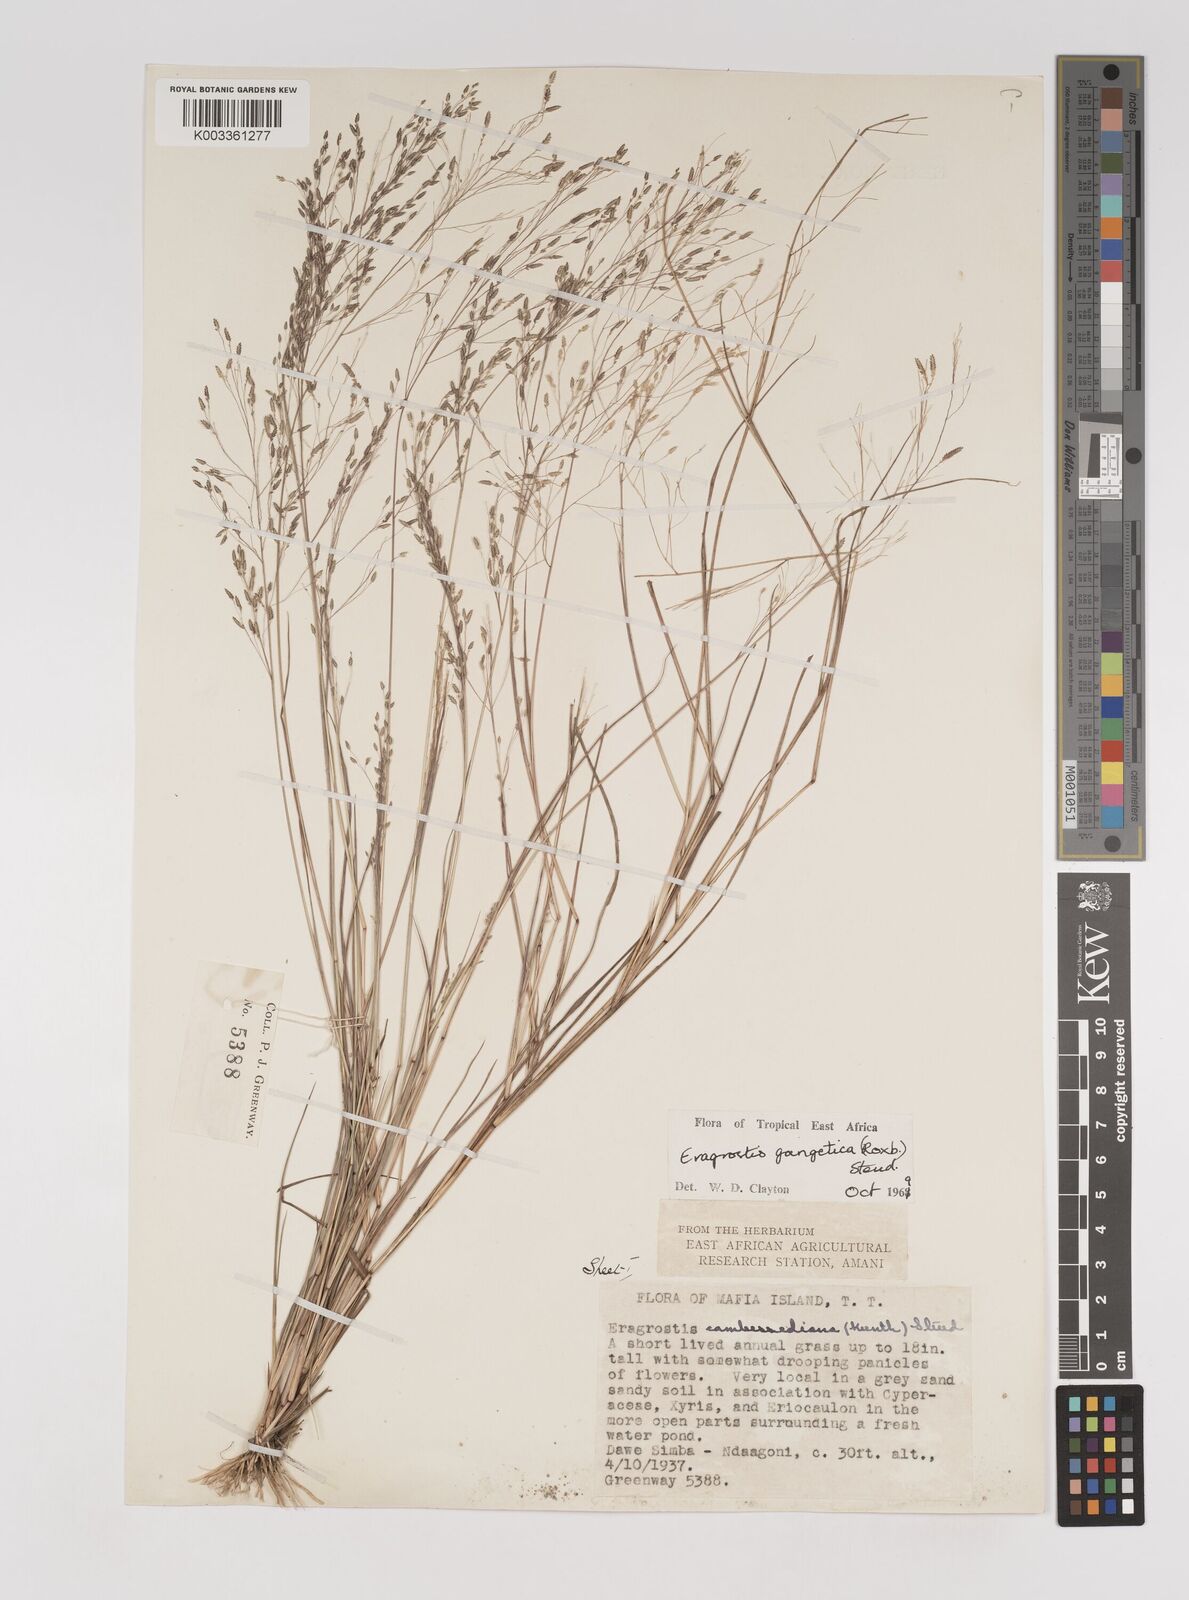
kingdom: Plantae
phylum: Tracheophyta
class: Liliopsida
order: Poales
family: Poaceae
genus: Eragrostis
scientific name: Eragrostis gangetica
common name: Slimflower lovegrass
